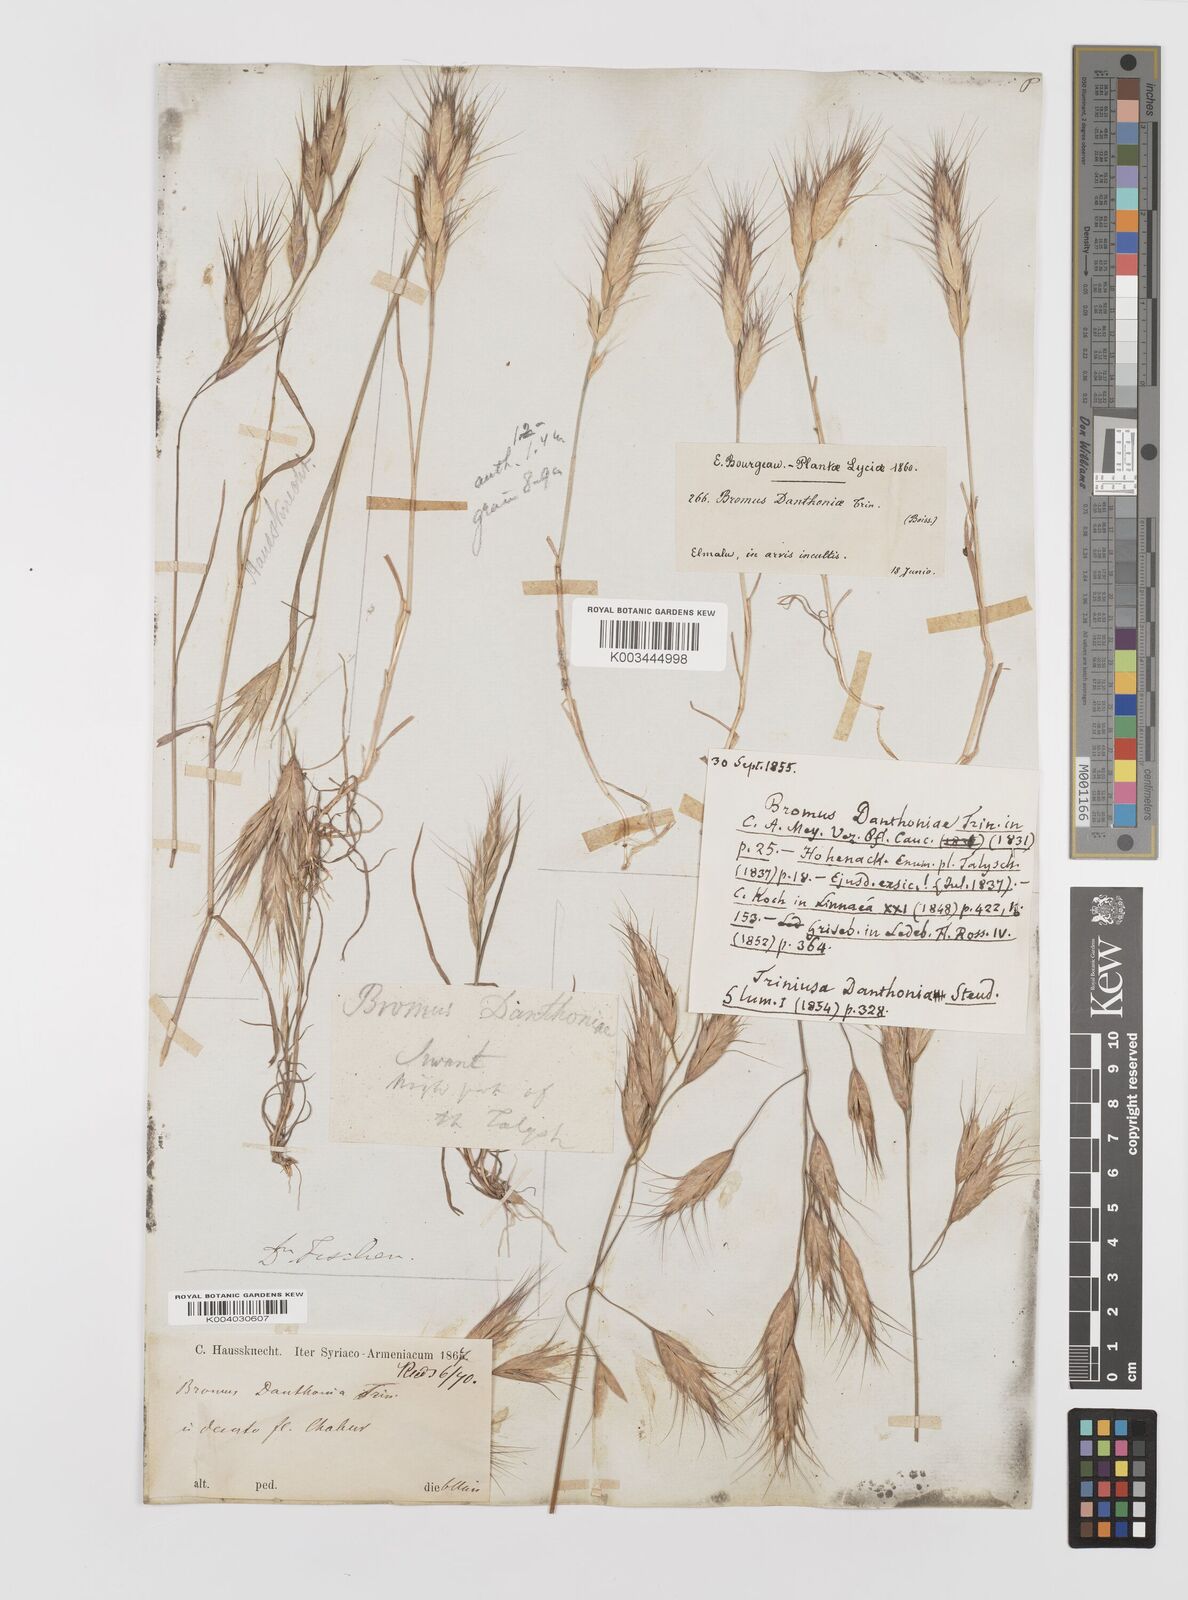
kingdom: Plantae
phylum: Tracheophyta
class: Liliopsida
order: Poales
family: Poaceae
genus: Bromus
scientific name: Bromus danthoniae
